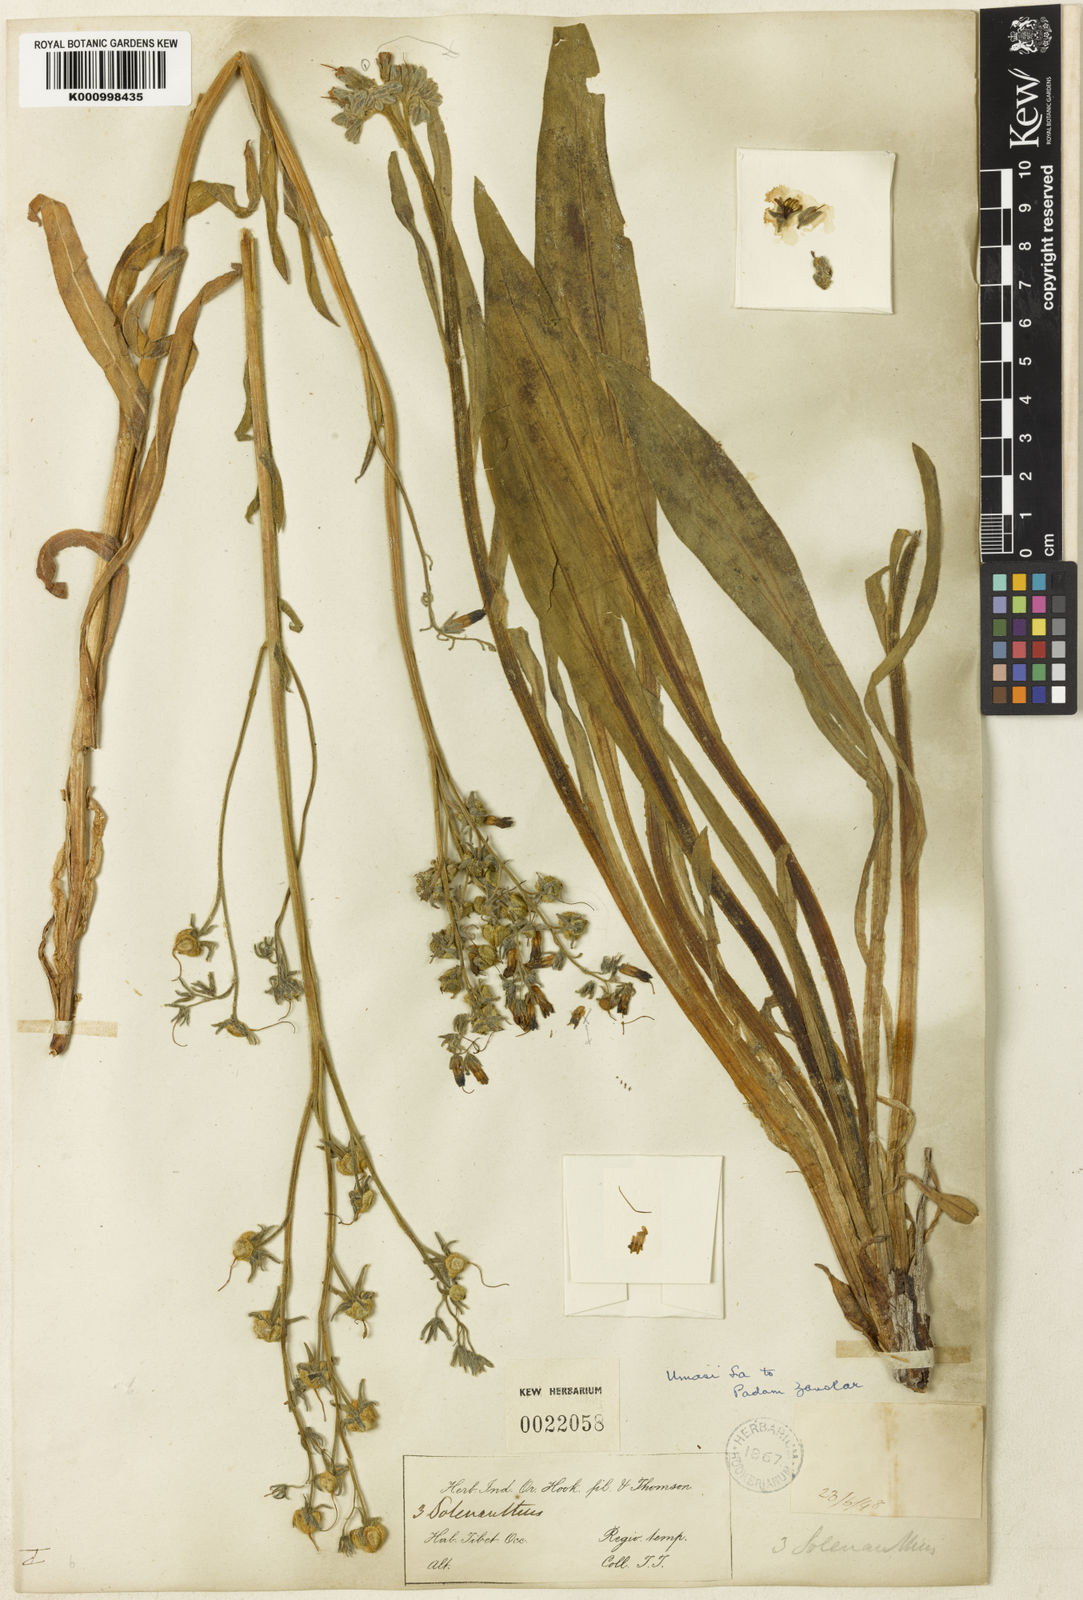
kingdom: Plantae
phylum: Tracheophyta
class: Magnoliopsida
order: Boraginales
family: Boraginaceae
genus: Lindelofia
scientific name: Lindelofia stylosa
